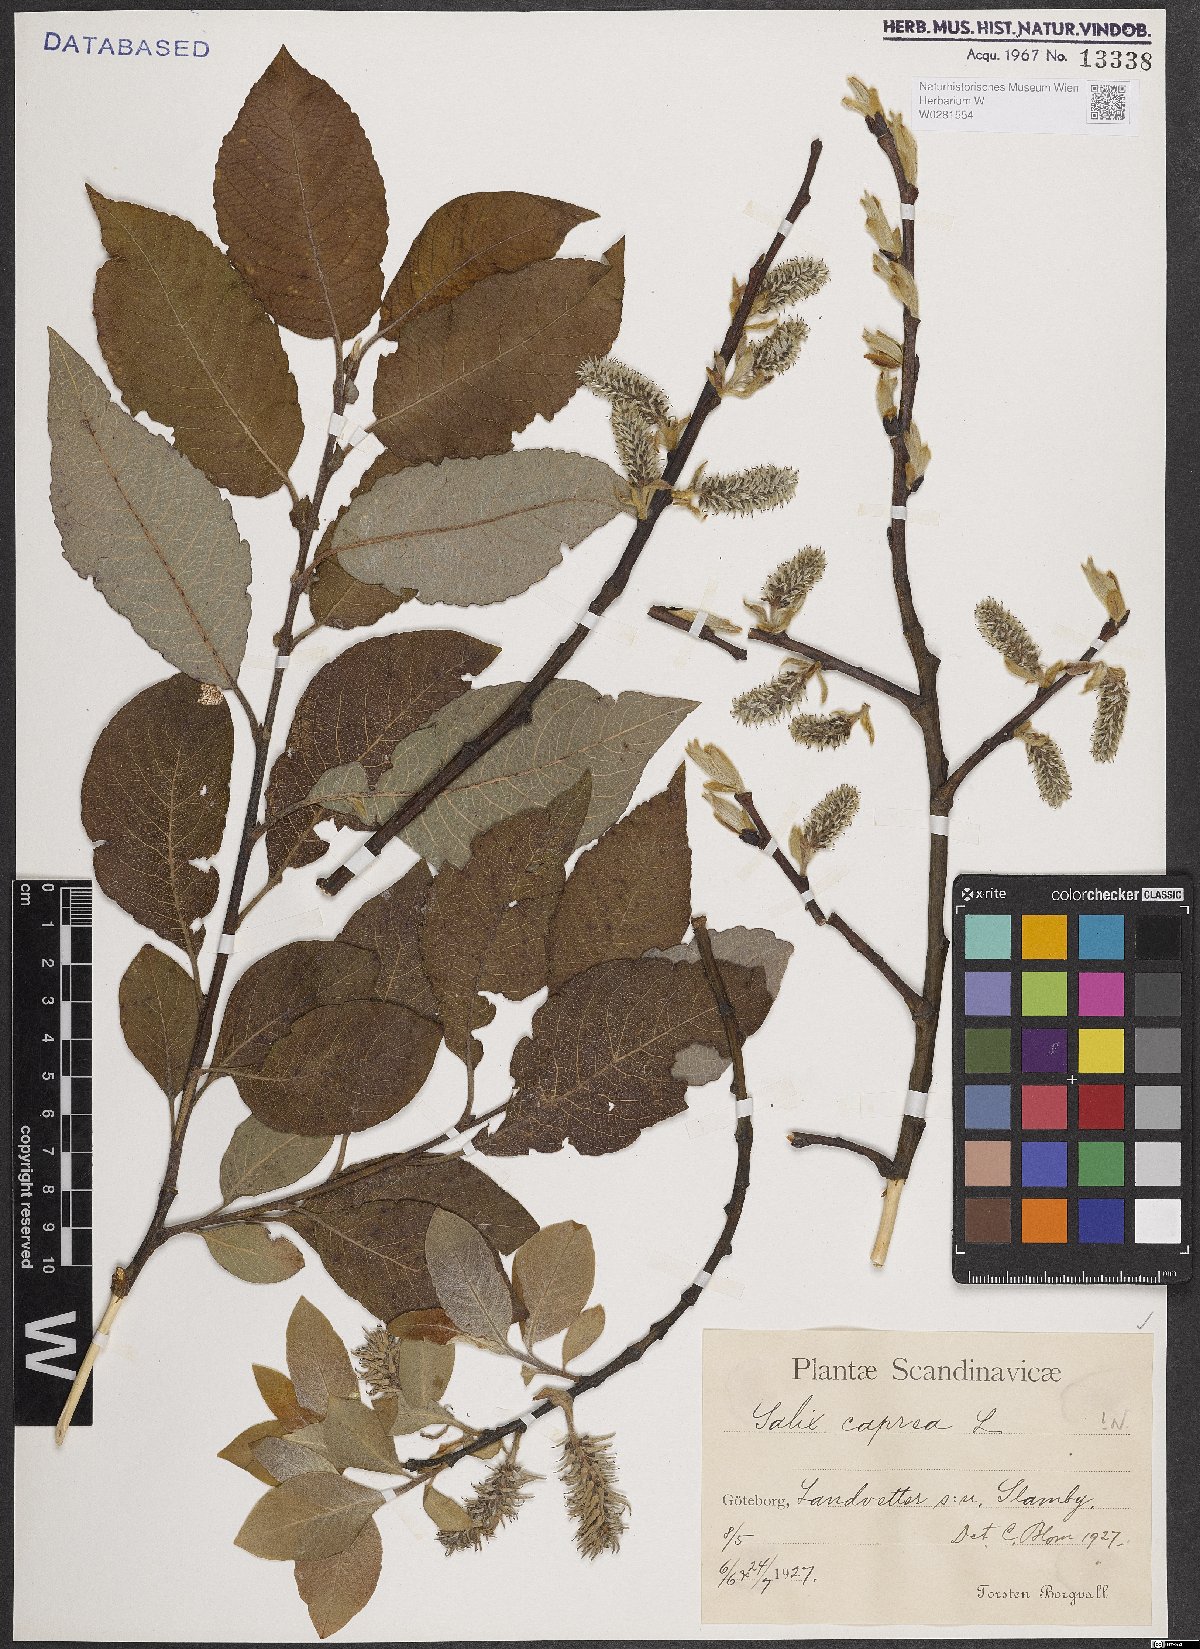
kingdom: Plantae
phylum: Tracheophyta
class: Magnoliopsida
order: Malpighiales
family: Salicaceae
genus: Salix
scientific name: Salix caprea
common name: Goat willow
